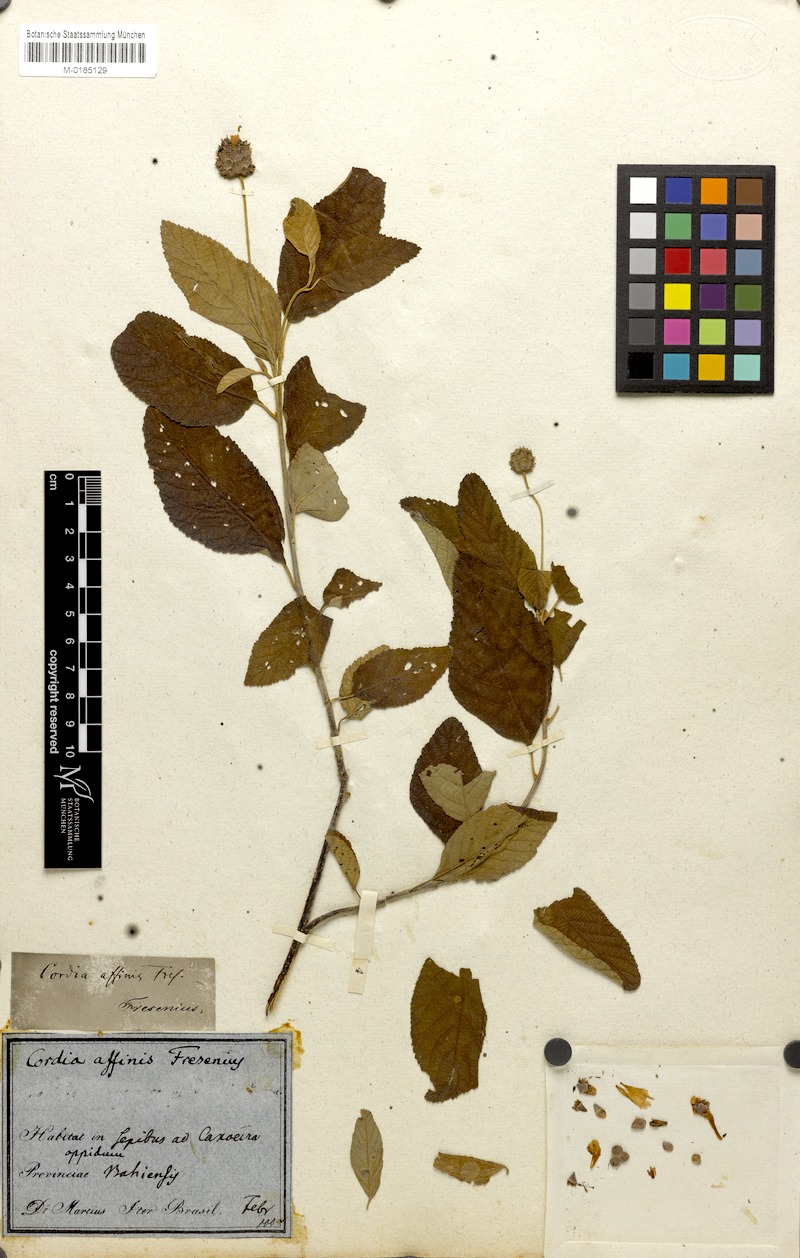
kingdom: Plantae
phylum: Tracheophyta
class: Magnoliopsida
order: Boraginales
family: Cordiaceae
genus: Cordia
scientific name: Cordia affinis
